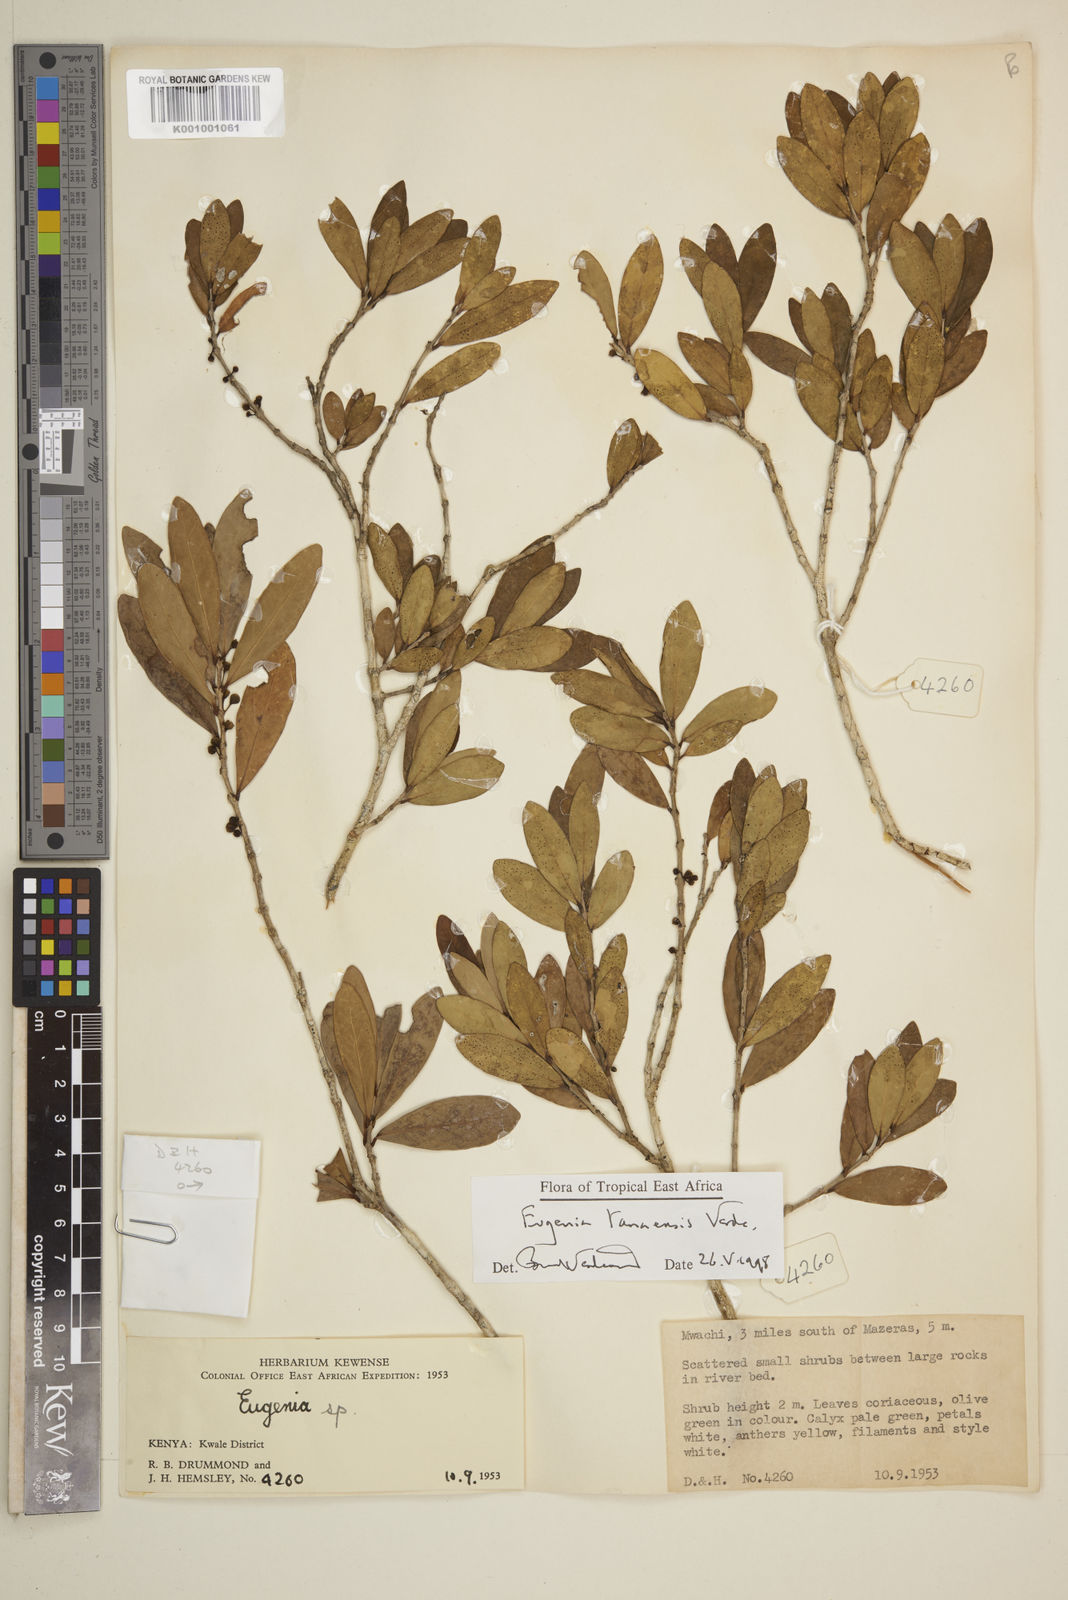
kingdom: Plantae
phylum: Tracheophyta
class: Magnoliopsida
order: Myrtales
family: Myrtaceae
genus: Eugenia
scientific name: Eugenia tanaensis
